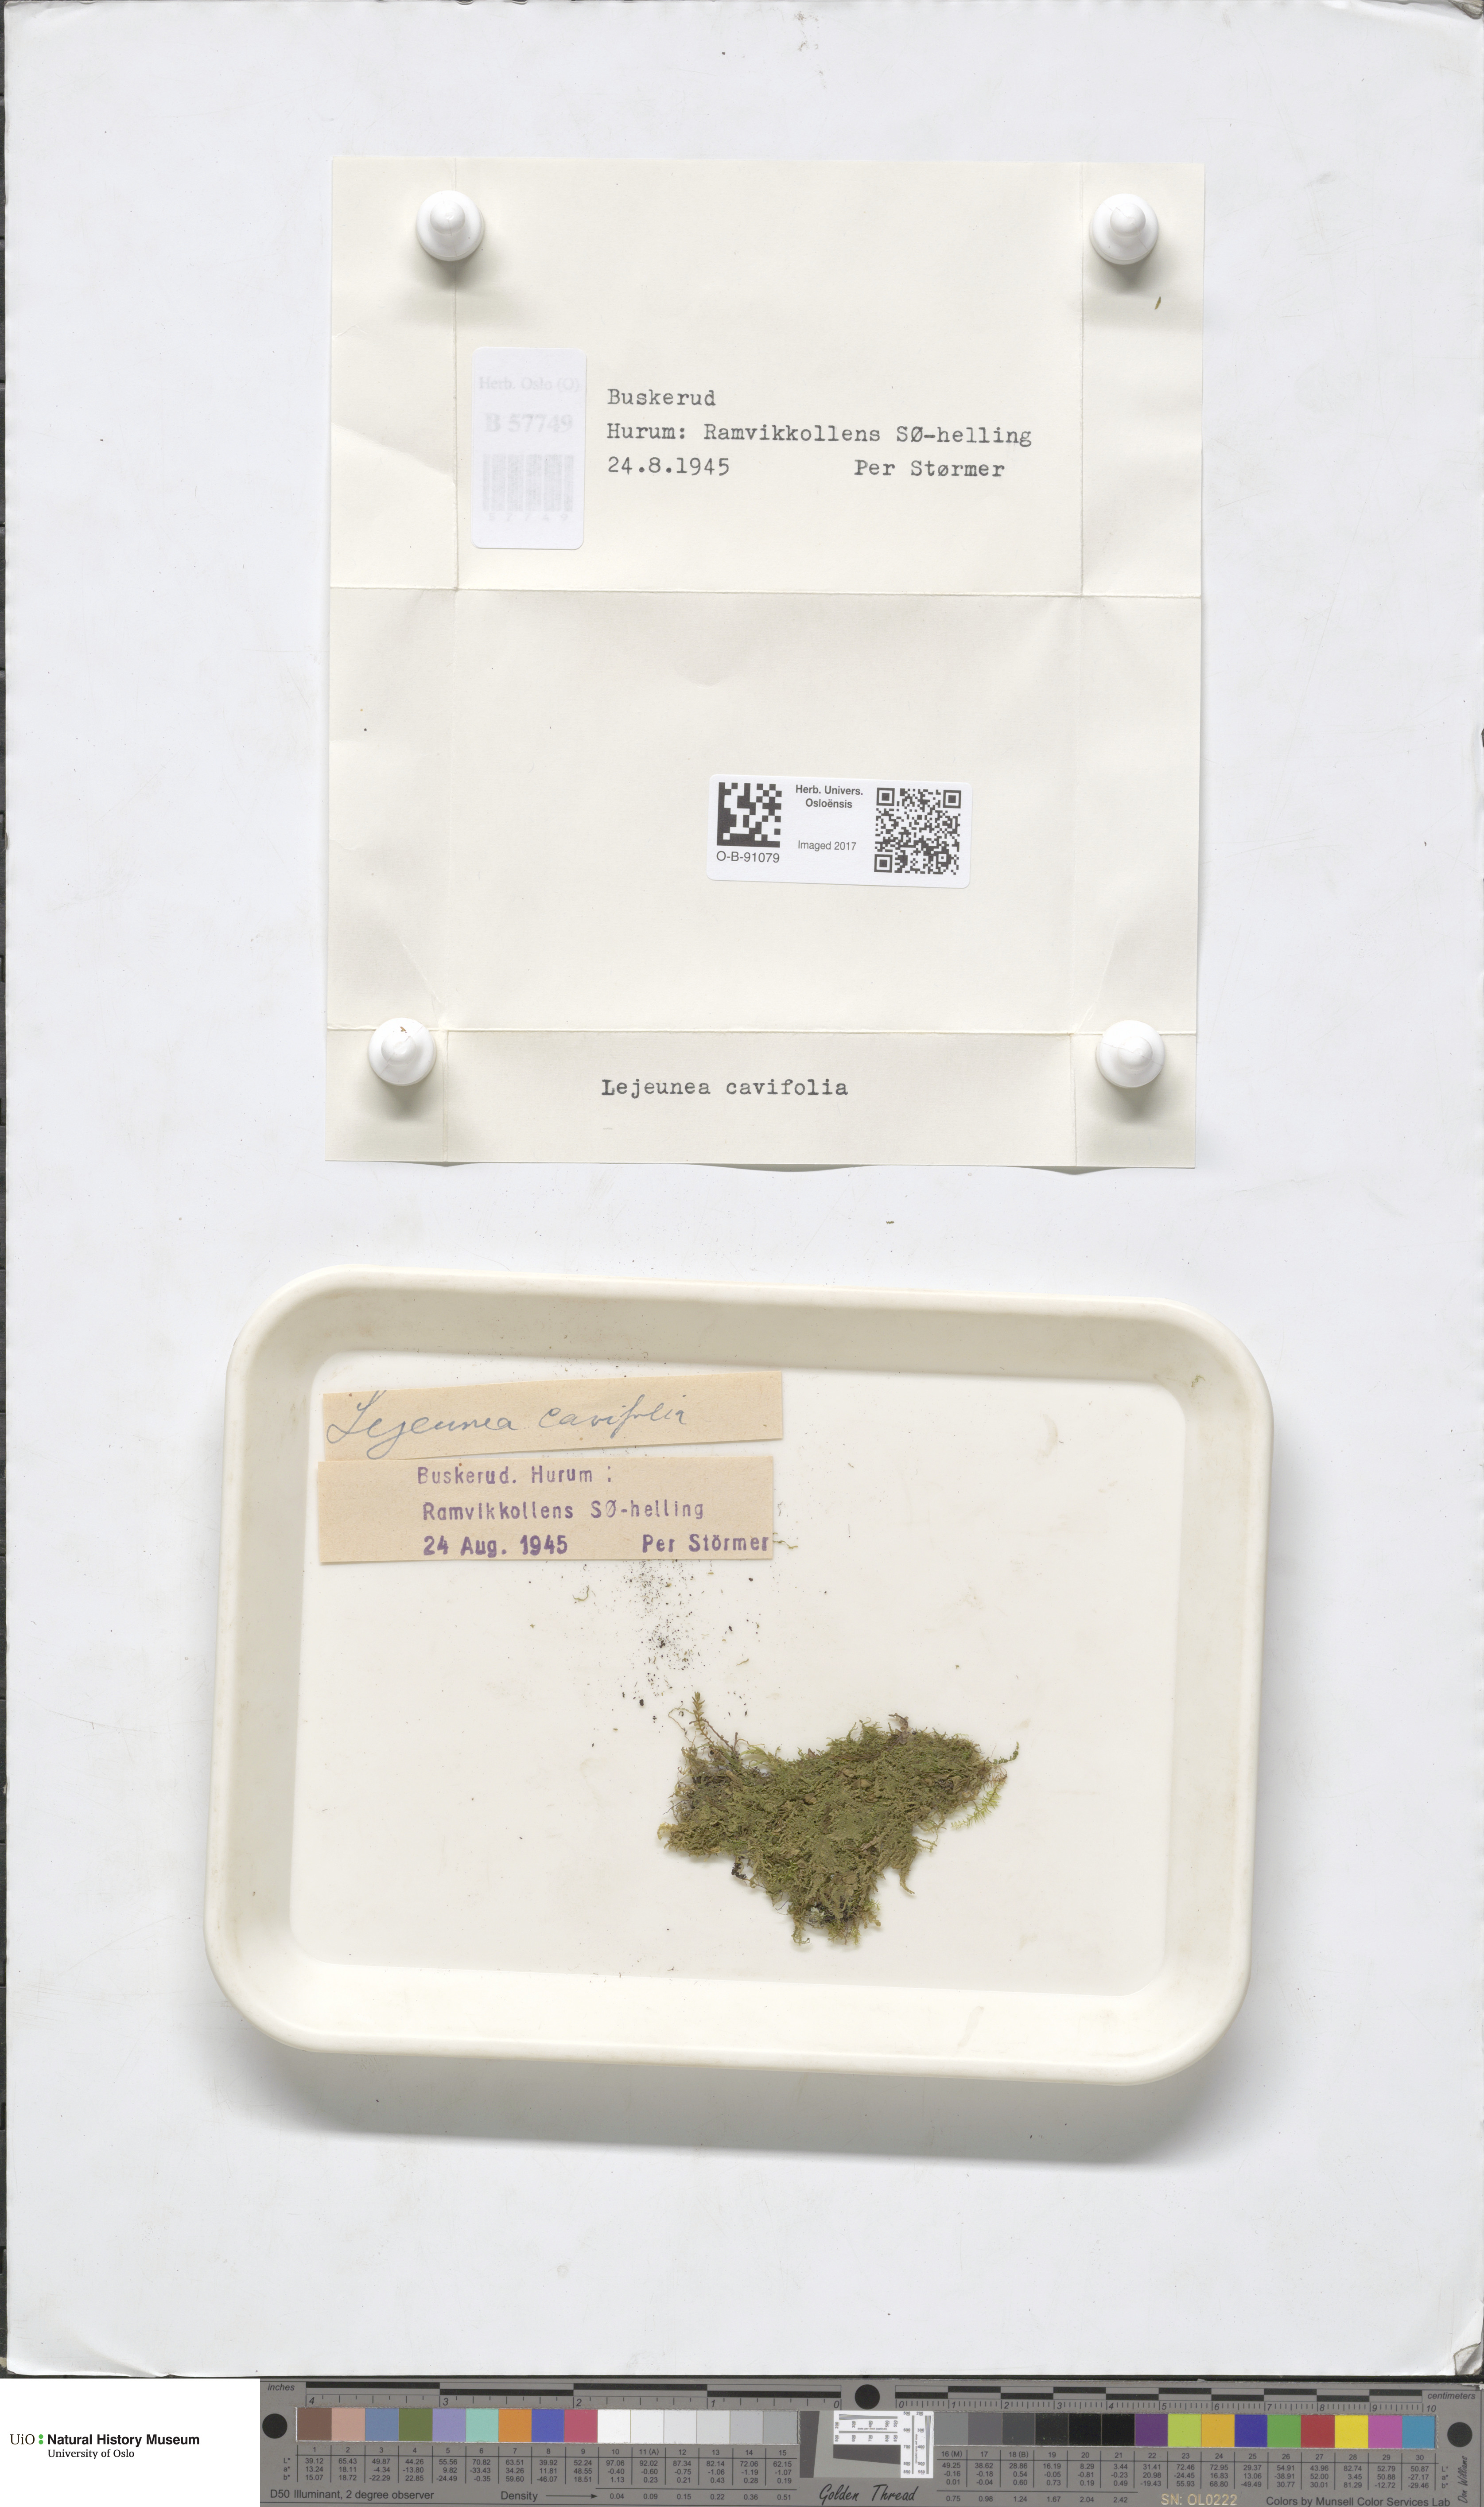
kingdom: Plantae
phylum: Marchantiophyta
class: Jungermanniopsida
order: Porellales
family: Lejeuneaceae
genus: Lejeunea
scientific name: Lejeunea cavifolia
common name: Least pouncewort
